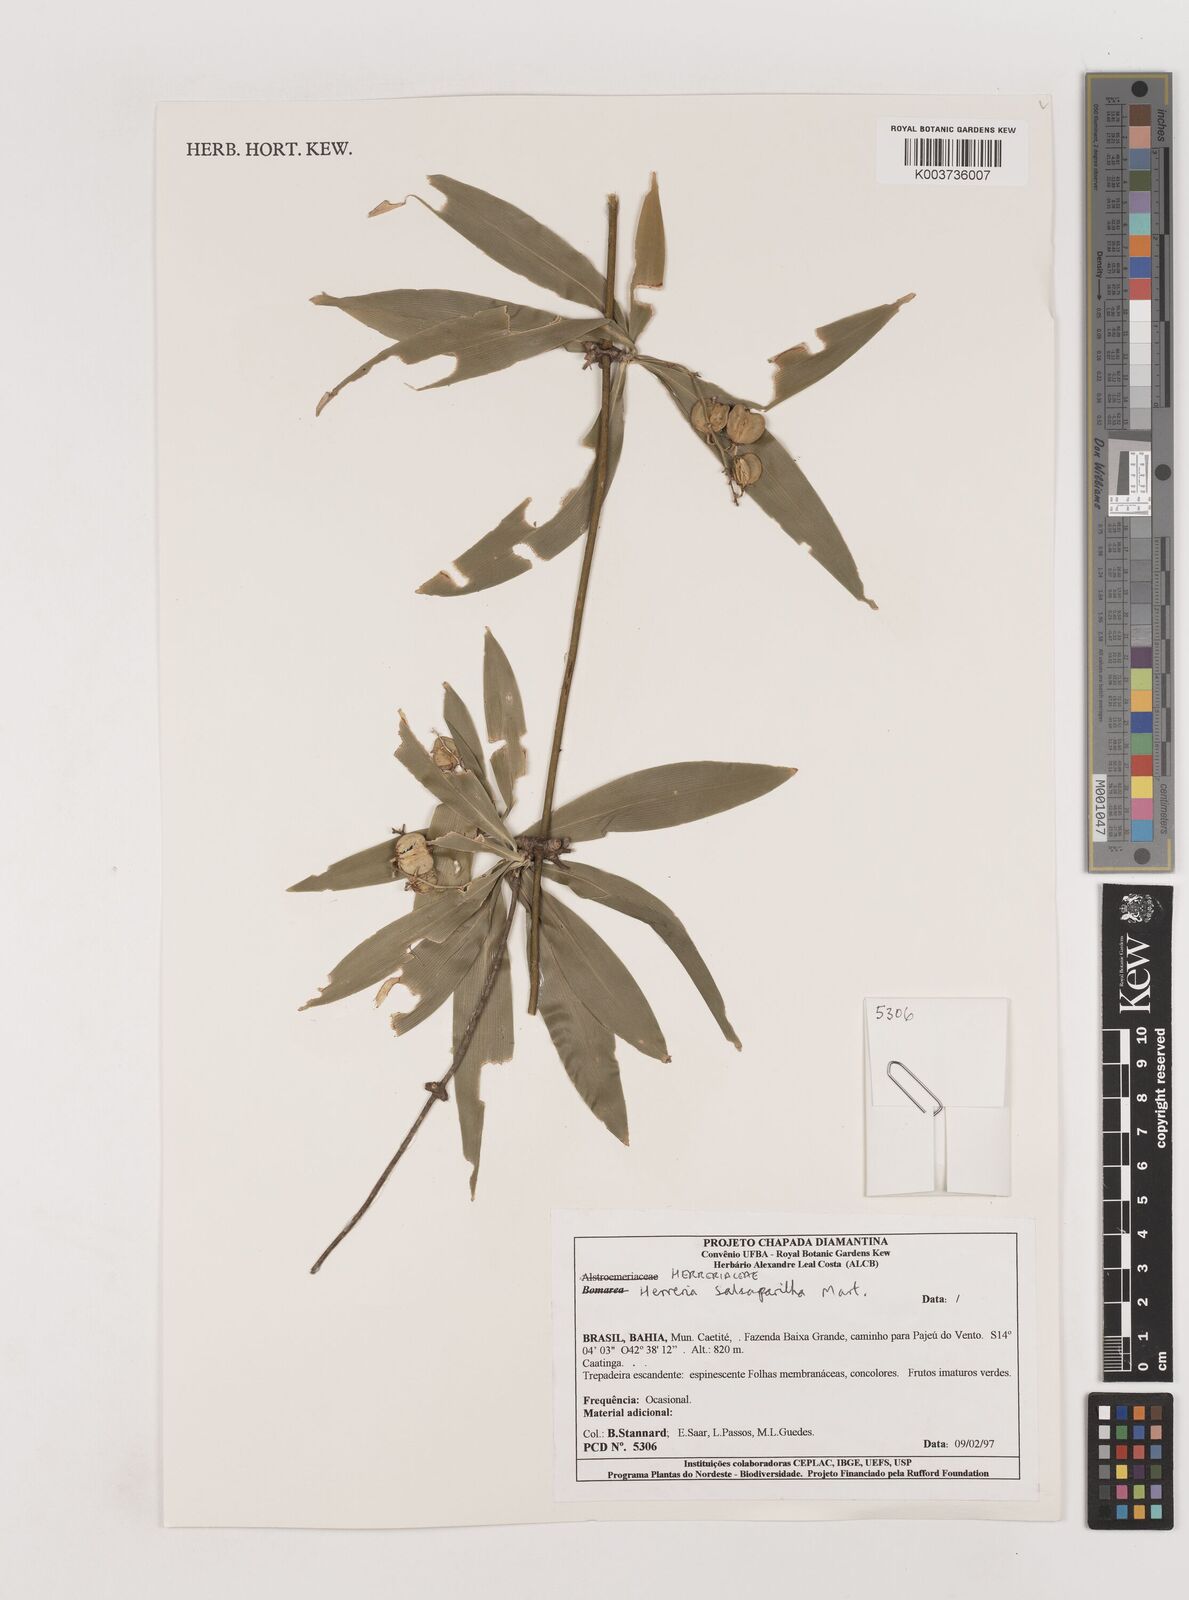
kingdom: Plantae
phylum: Tracheophyta
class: Liliopsida
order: Asparagales
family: Asparagaceae
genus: Herreria
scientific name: Herreria salsaparilha
